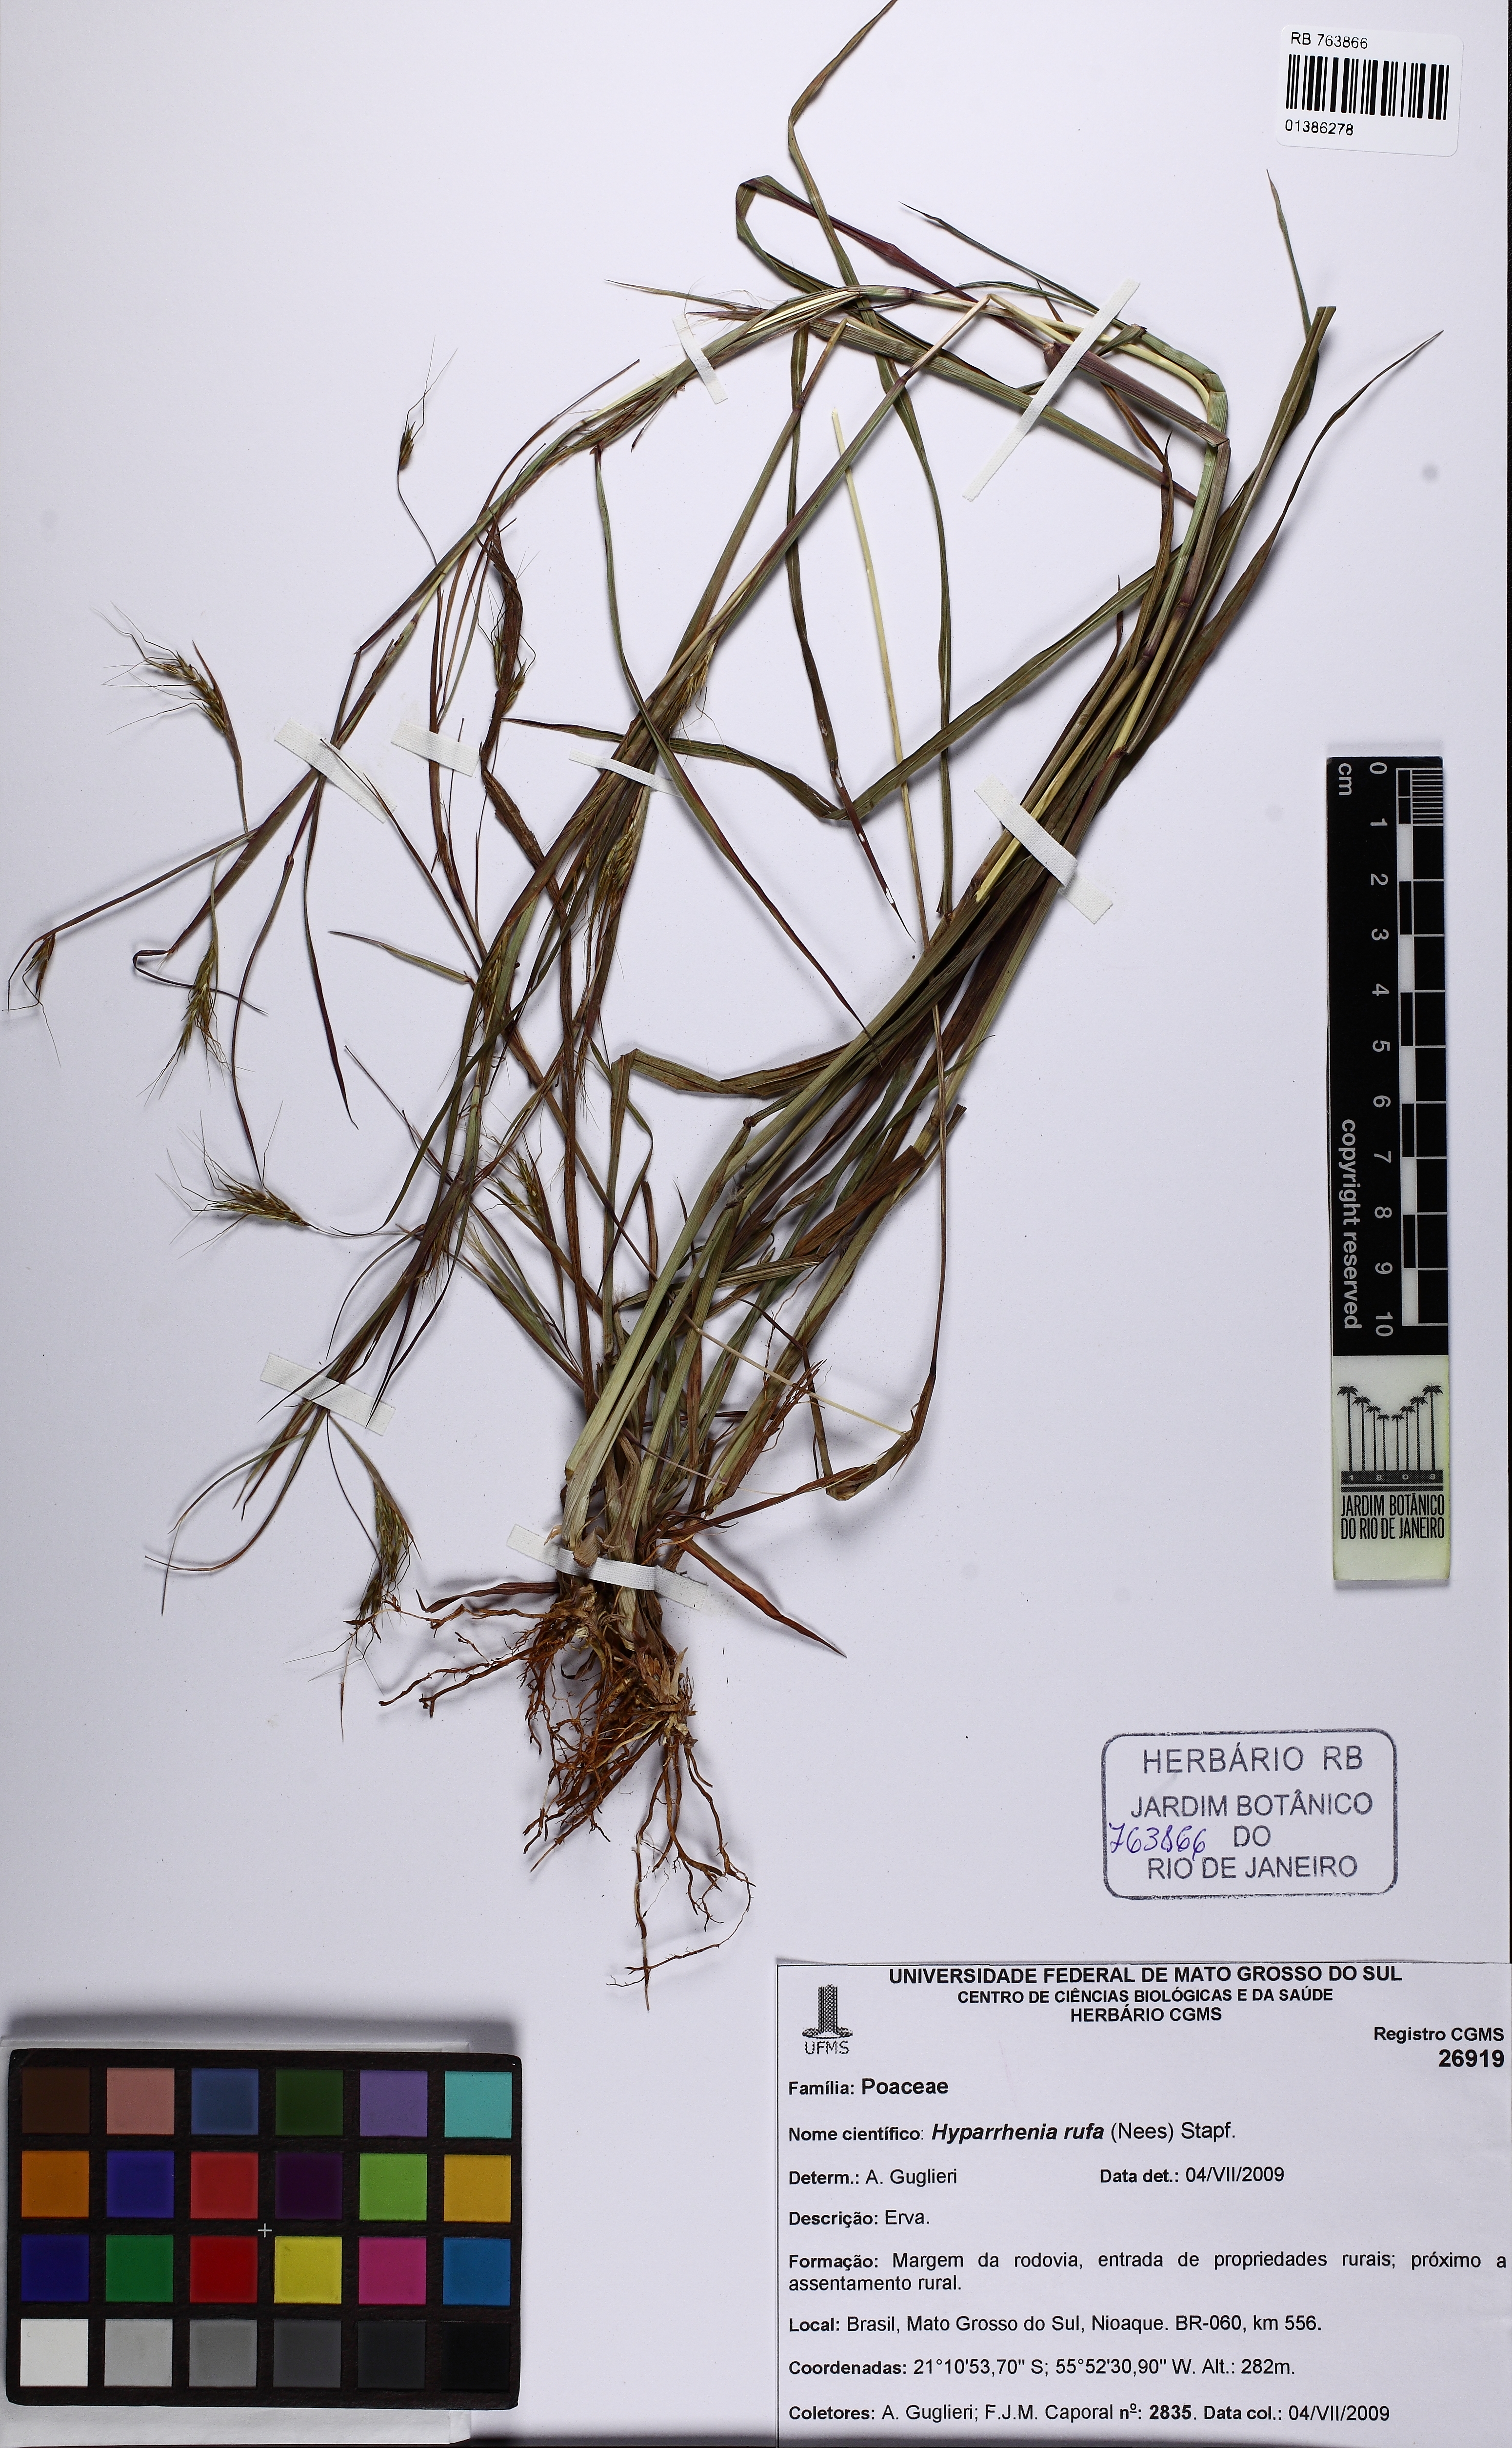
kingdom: Plantae
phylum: Tracheophyta
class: Liliopsida
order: Poales
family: Poaceae
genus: Hyparrhenia
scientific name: Hyparrhenia rufa
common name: Jaraguagrass
